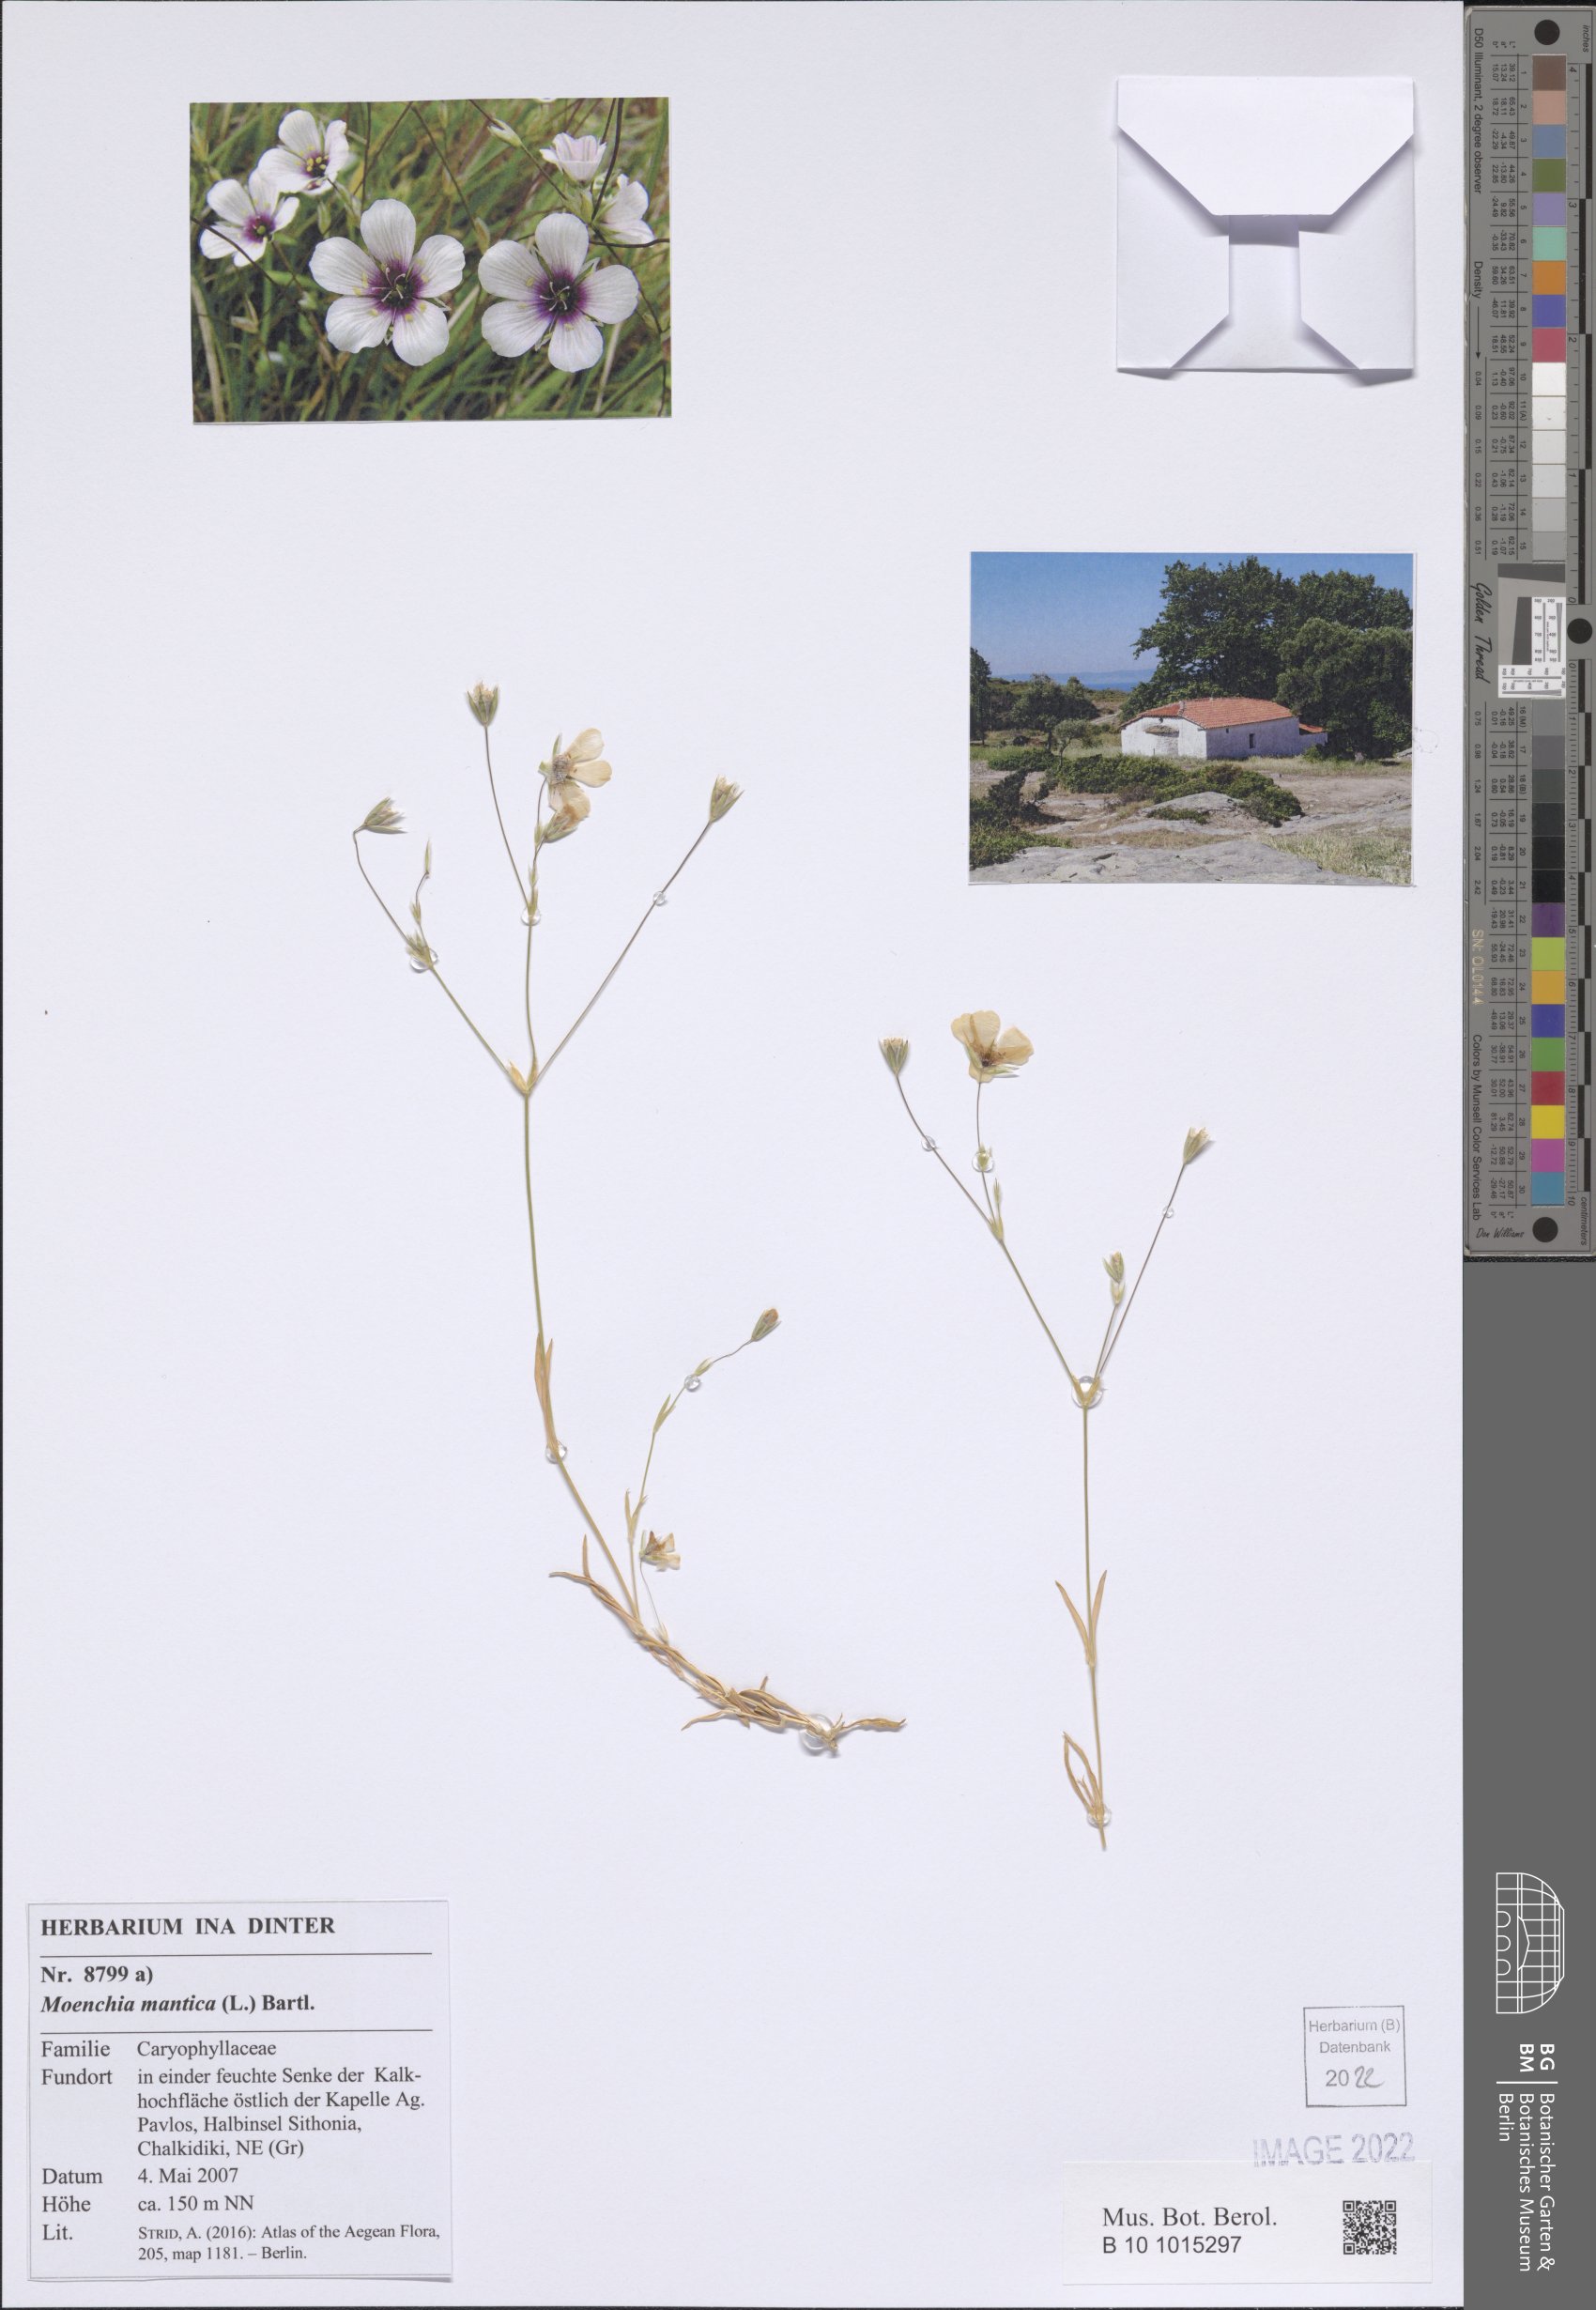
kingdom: Plantae
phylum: Tracheophyta
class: Magnoliopsida
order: Caryophyllales
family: Caryophyllaceae
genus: Moenchia
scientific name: Moenchia mantica
